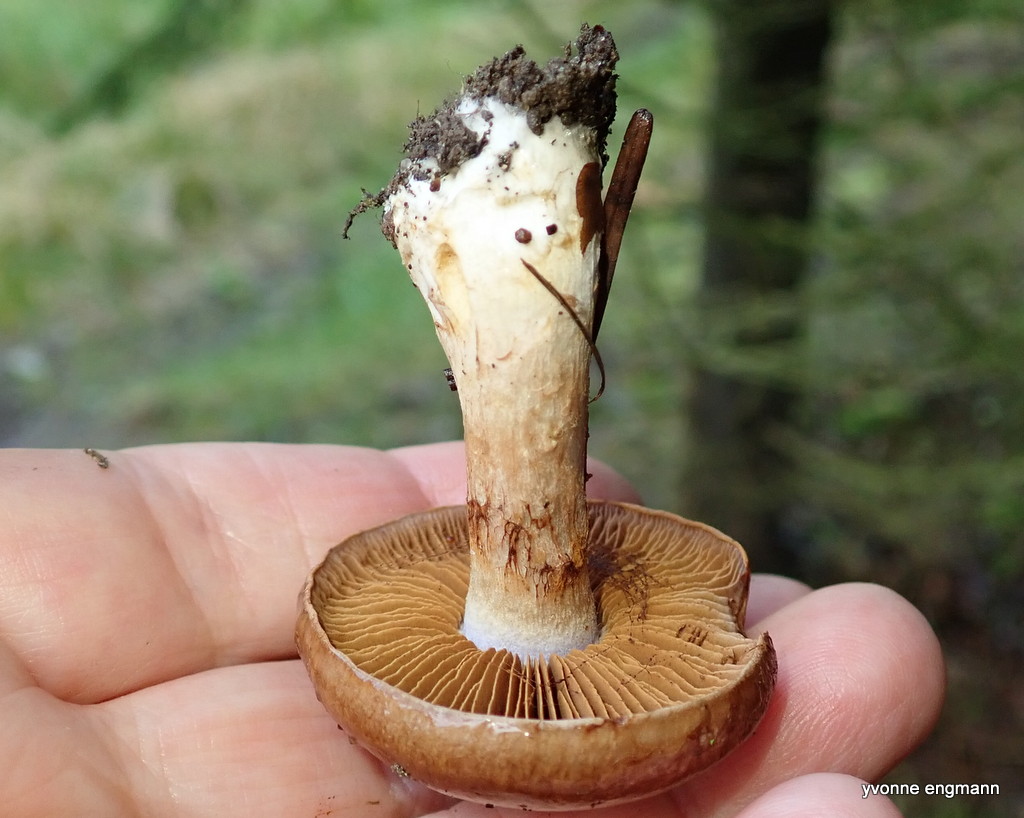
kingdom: Fungi
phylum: Basidiomycota
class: Agaricomycetes
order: Agaricales
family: Cortinariaceae
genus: Cortinarius
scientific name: Cortinarius
